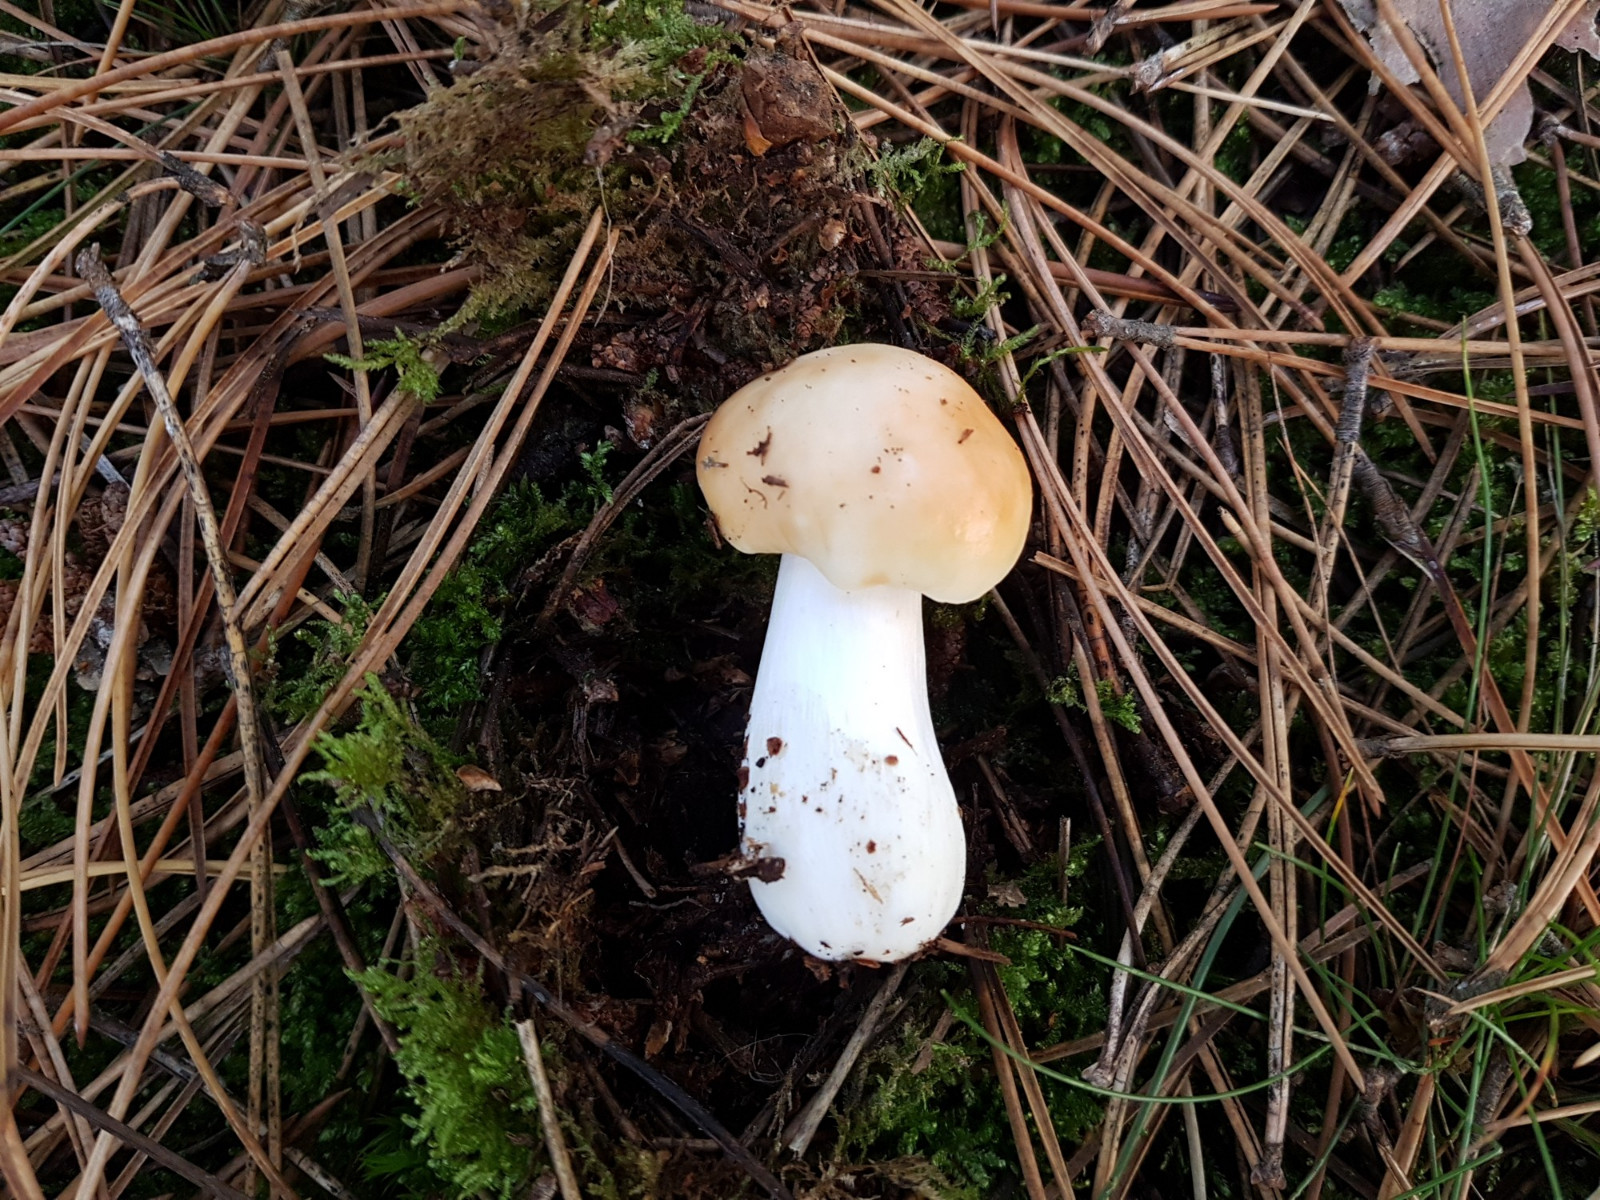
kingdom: Fungi
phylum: Basidiomycota
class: Agaricomycetes
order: Russulales
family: Russulaceae
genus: Russula
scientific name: Russula paludosa
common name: prægtig skørhat
